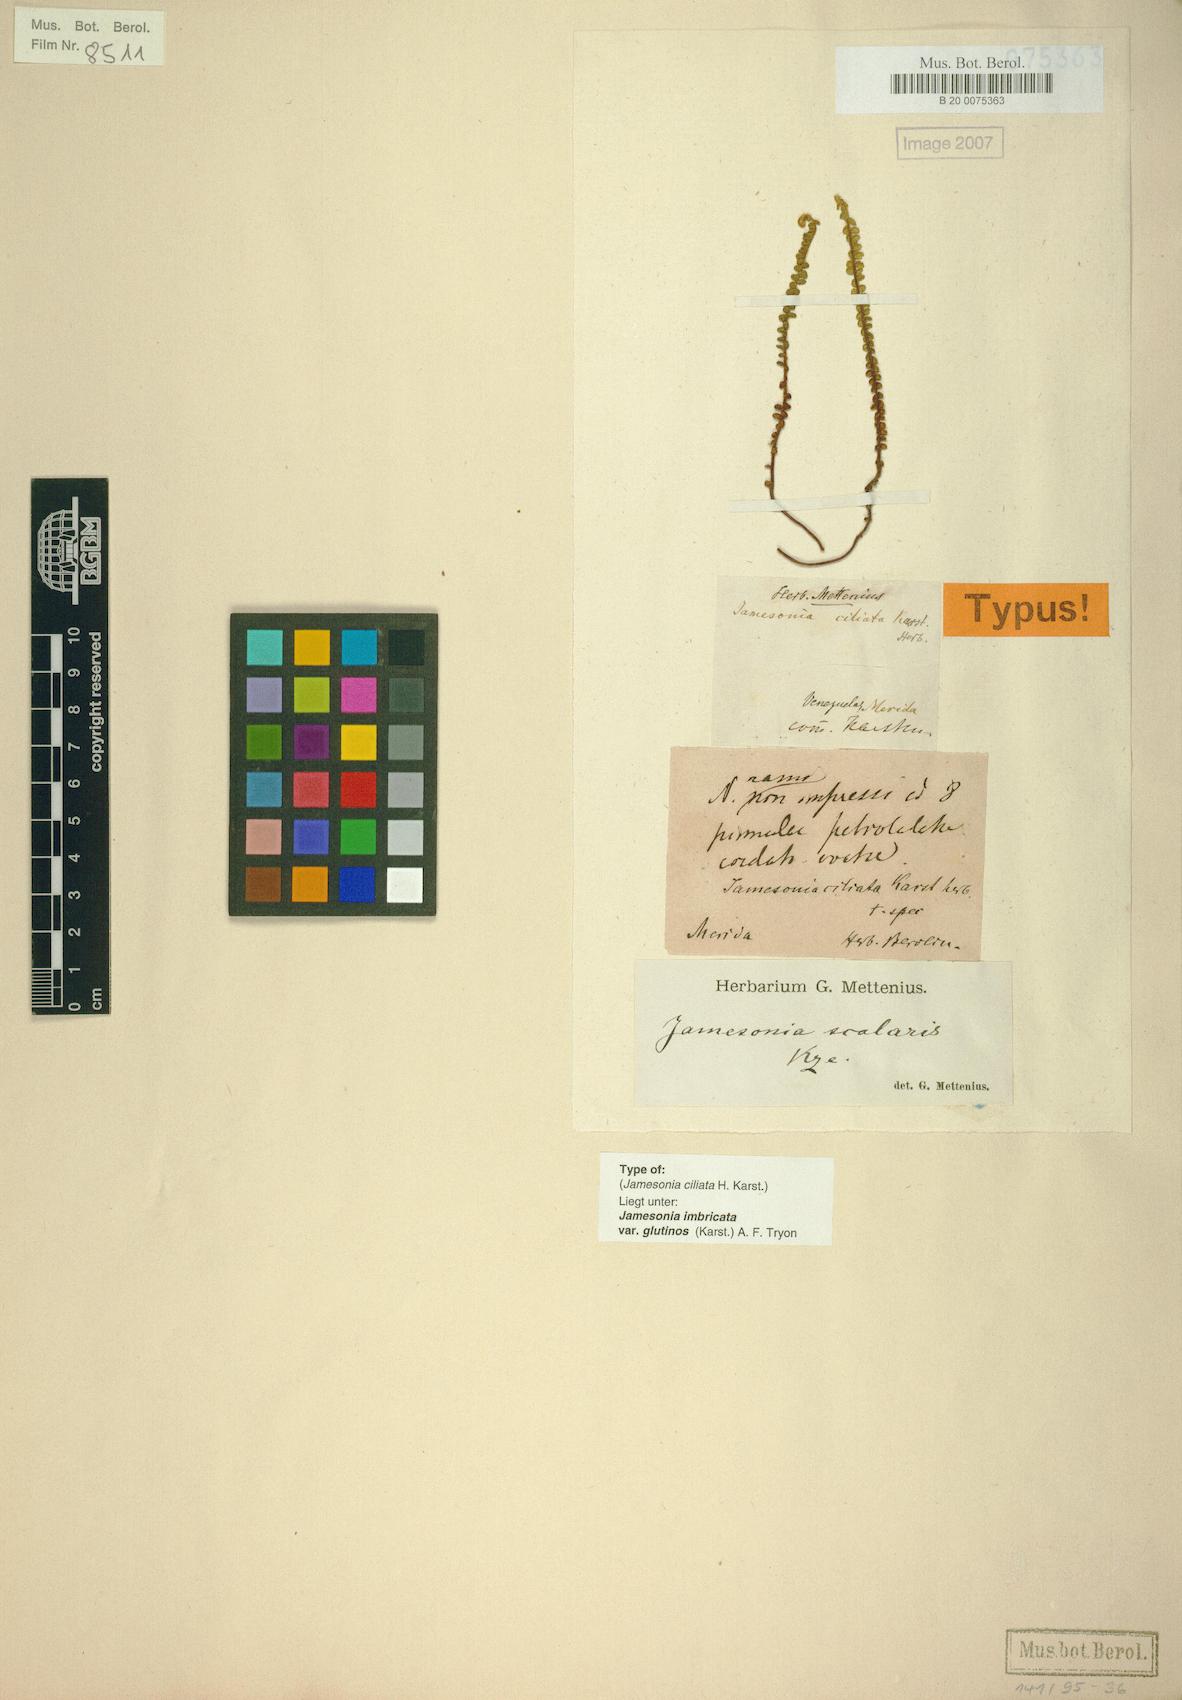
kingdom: Plantae
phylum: Tracheophyta
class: Polypodiopsida
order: Polypodiales
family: Pteridaceae
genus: Jamesonia
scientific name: Jamesonia imbricata
